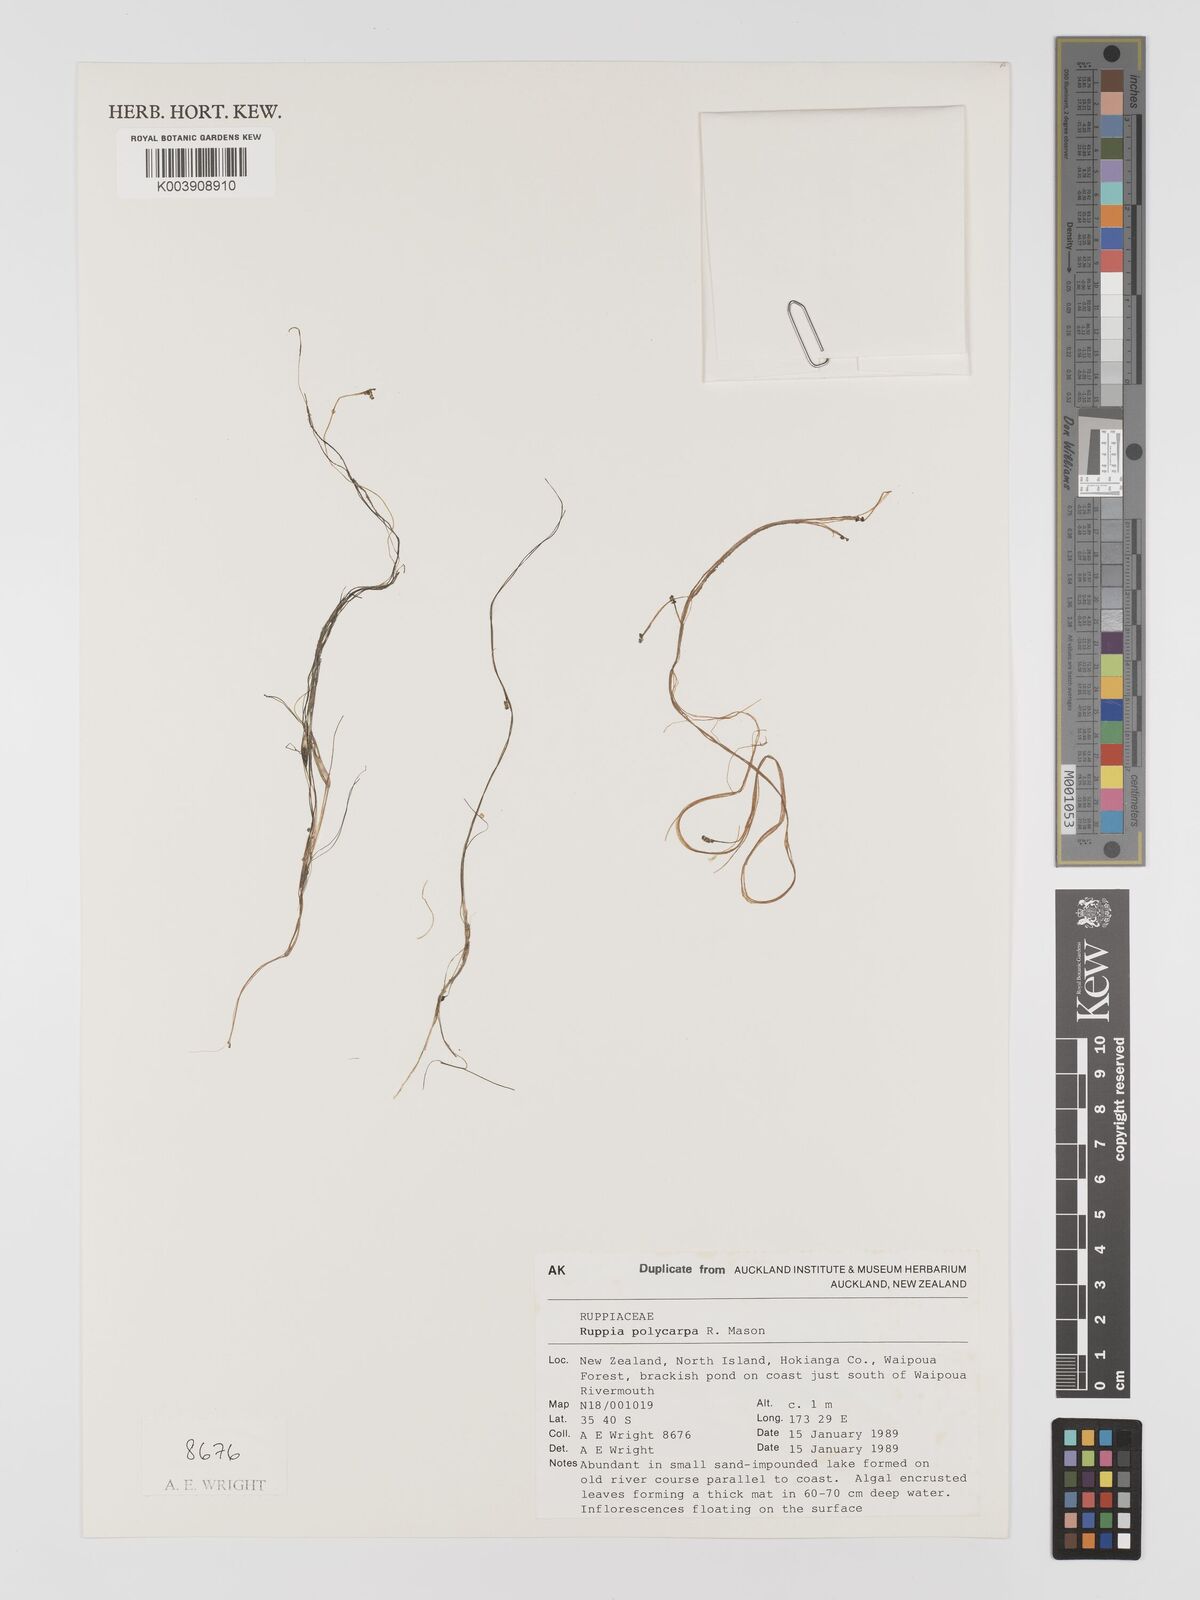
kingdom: Plantae
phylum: Tracheophyta
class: Liliopsida
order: Alismatales
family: Ruppiaceae
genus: Ruppia
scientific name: Ruppia polycarpa
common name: Species code: rp
